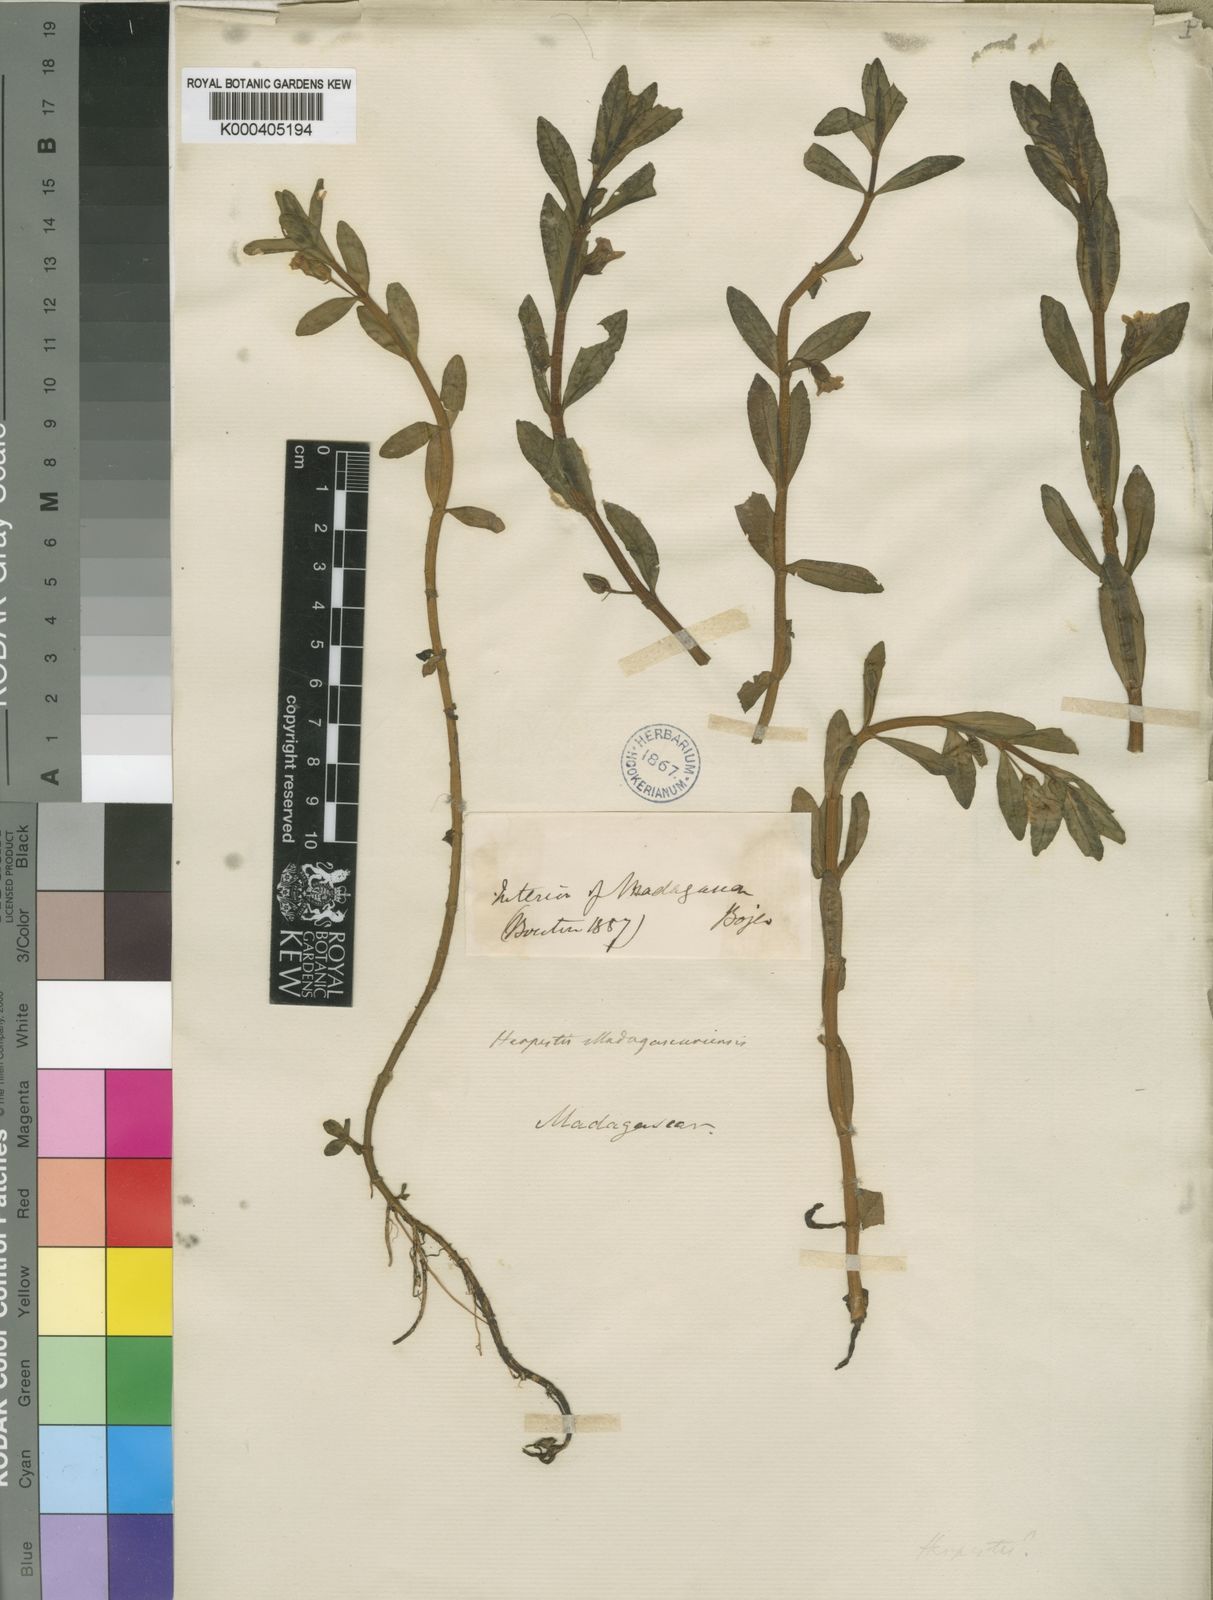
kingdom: Plantae
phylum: Tracheophyta
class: Magnoliopsida
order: Lamiales
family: Plantaginaceae
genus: Bacopa
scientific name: Bacopa madagascariensis
